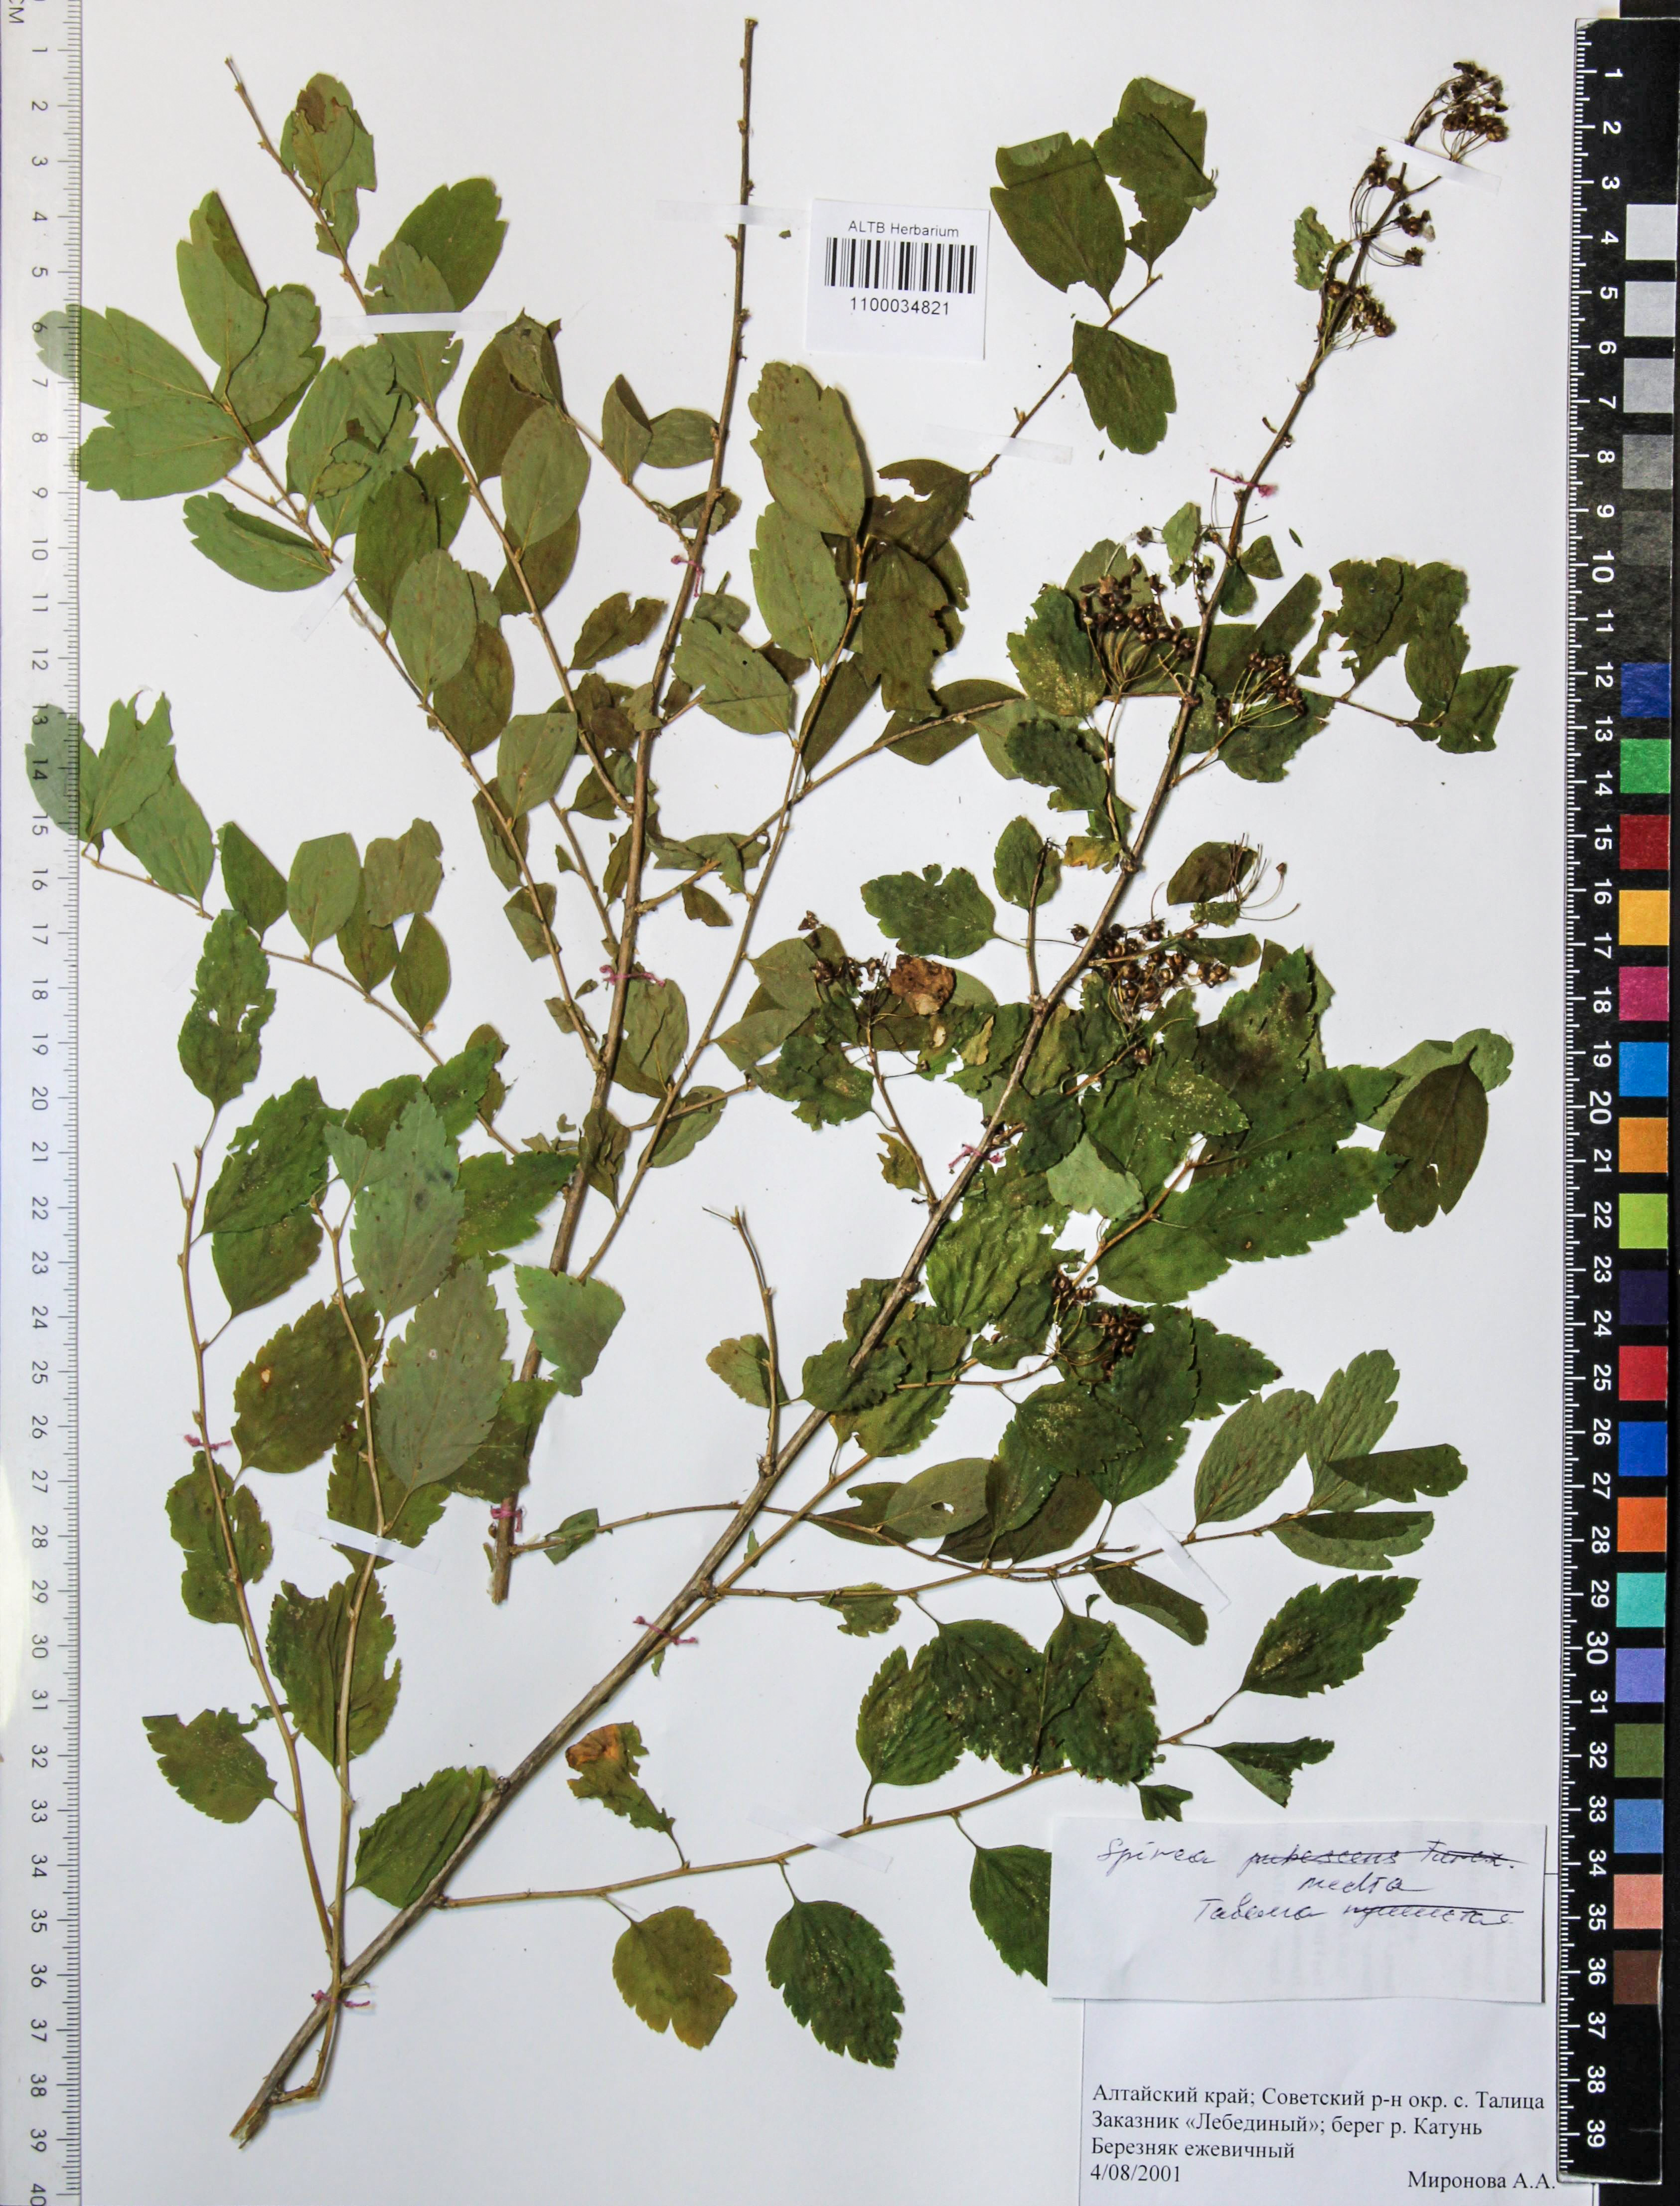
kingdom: Plantae
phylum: Tracheophyta
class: Magnoliopsida
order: Rosales
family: Rosaceae
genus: Spiraea
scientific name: Spiraea media
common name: Russian spiraea
